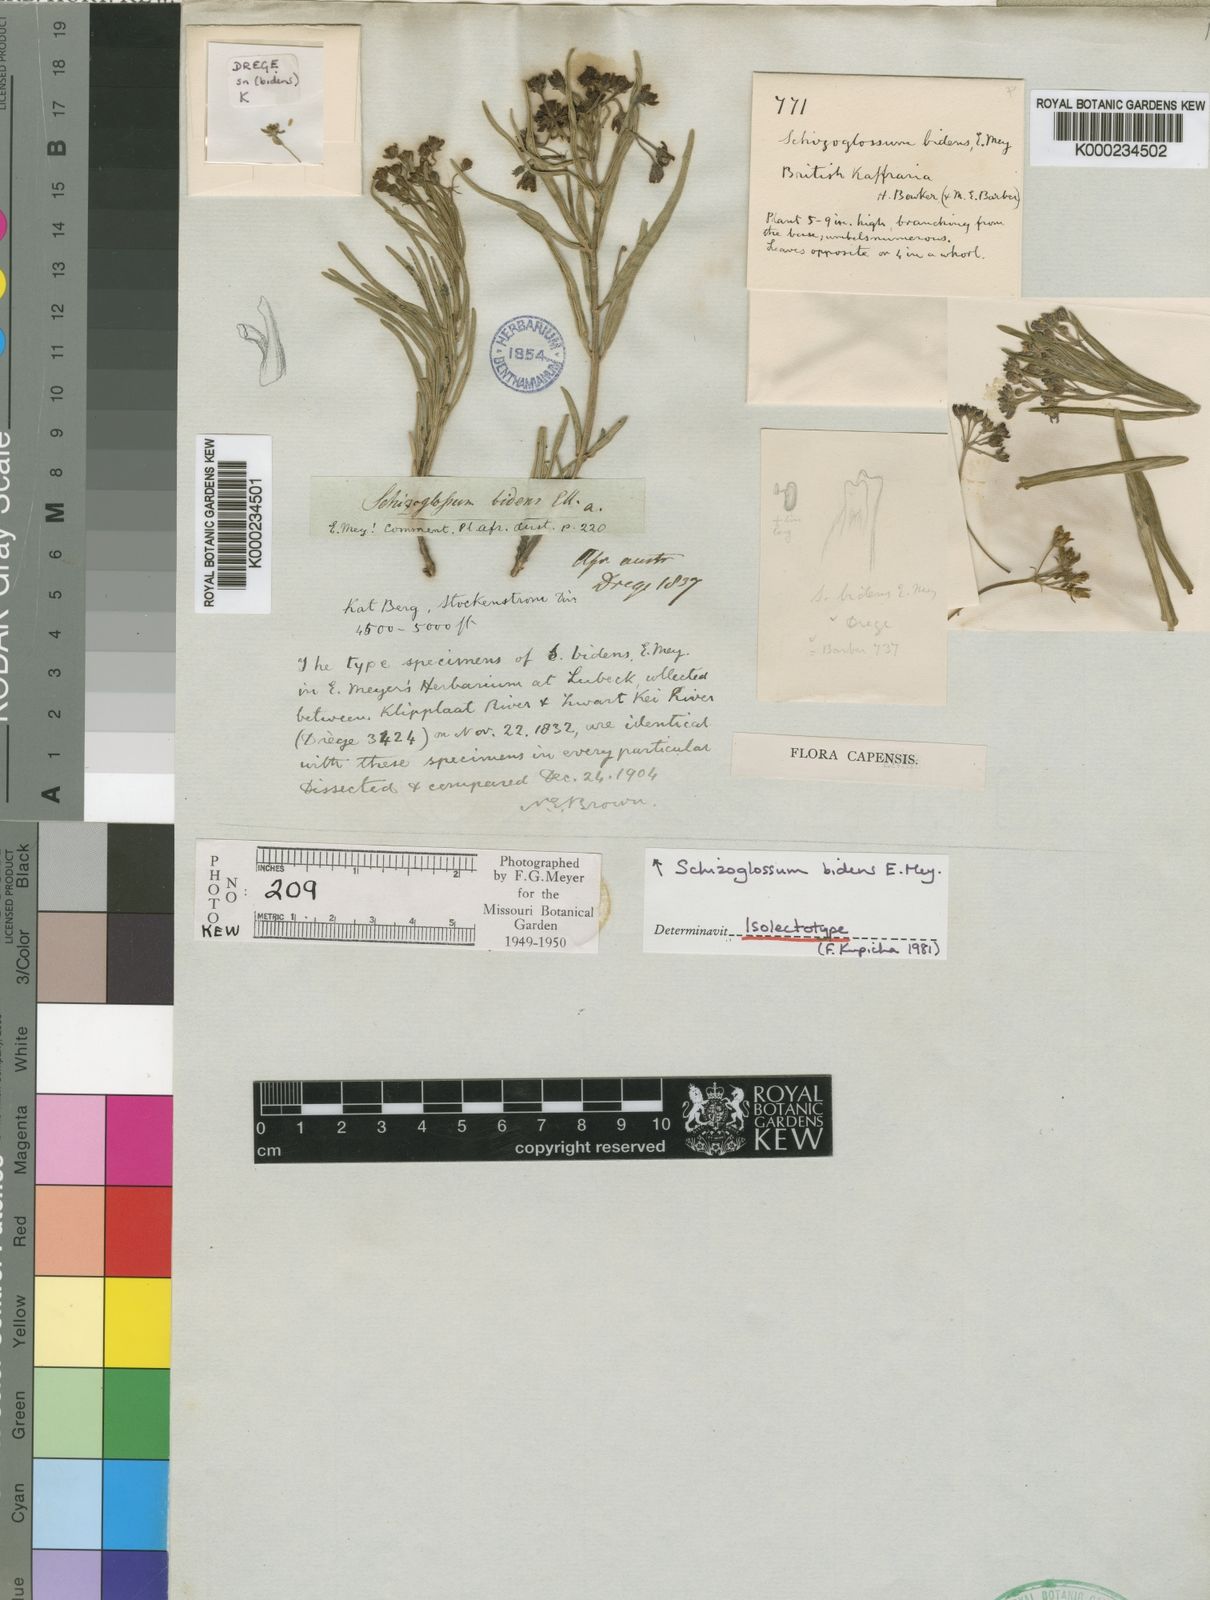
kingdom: Plantae
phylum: Tracheophyta
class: Magnoliopsida
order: Gentianales
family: Apocynaceae
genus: Schizoglossum
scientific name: Schizoglossum bidens
